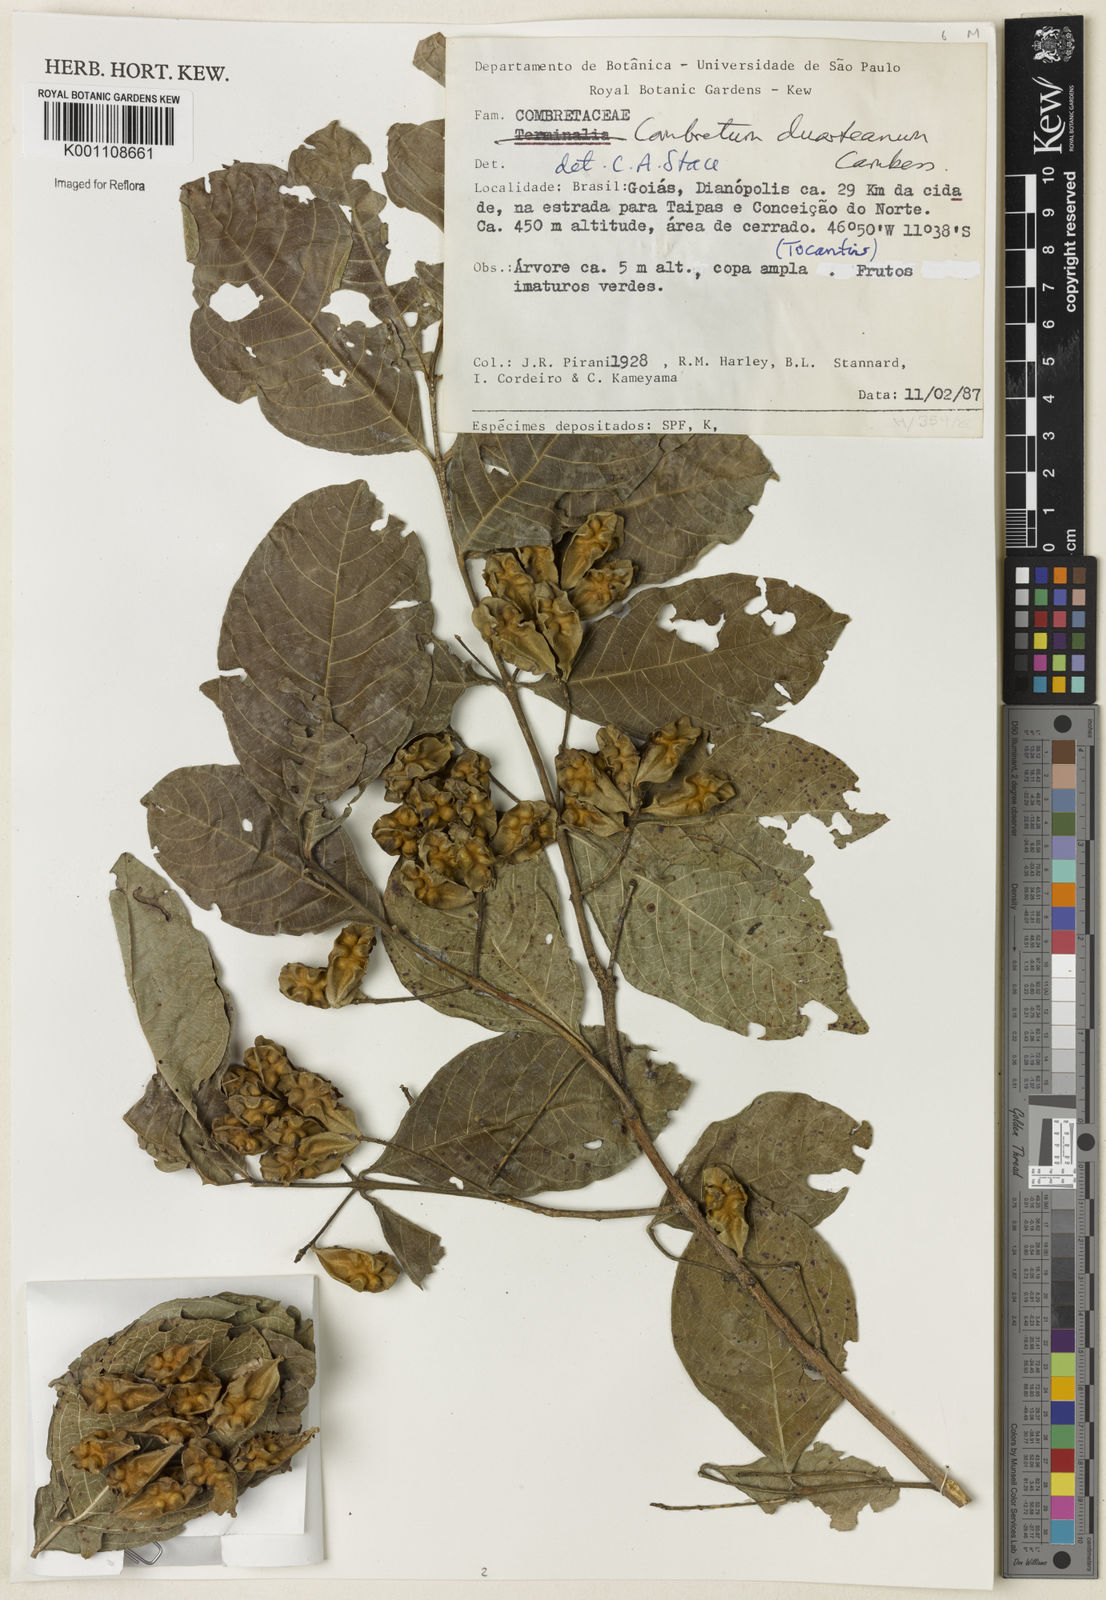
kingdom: Plantae
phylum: Tracheophyta
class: Magnoliopsida
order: Myrtales
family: Combretaceae
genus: Combretum
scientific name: Combretum duarteanum
